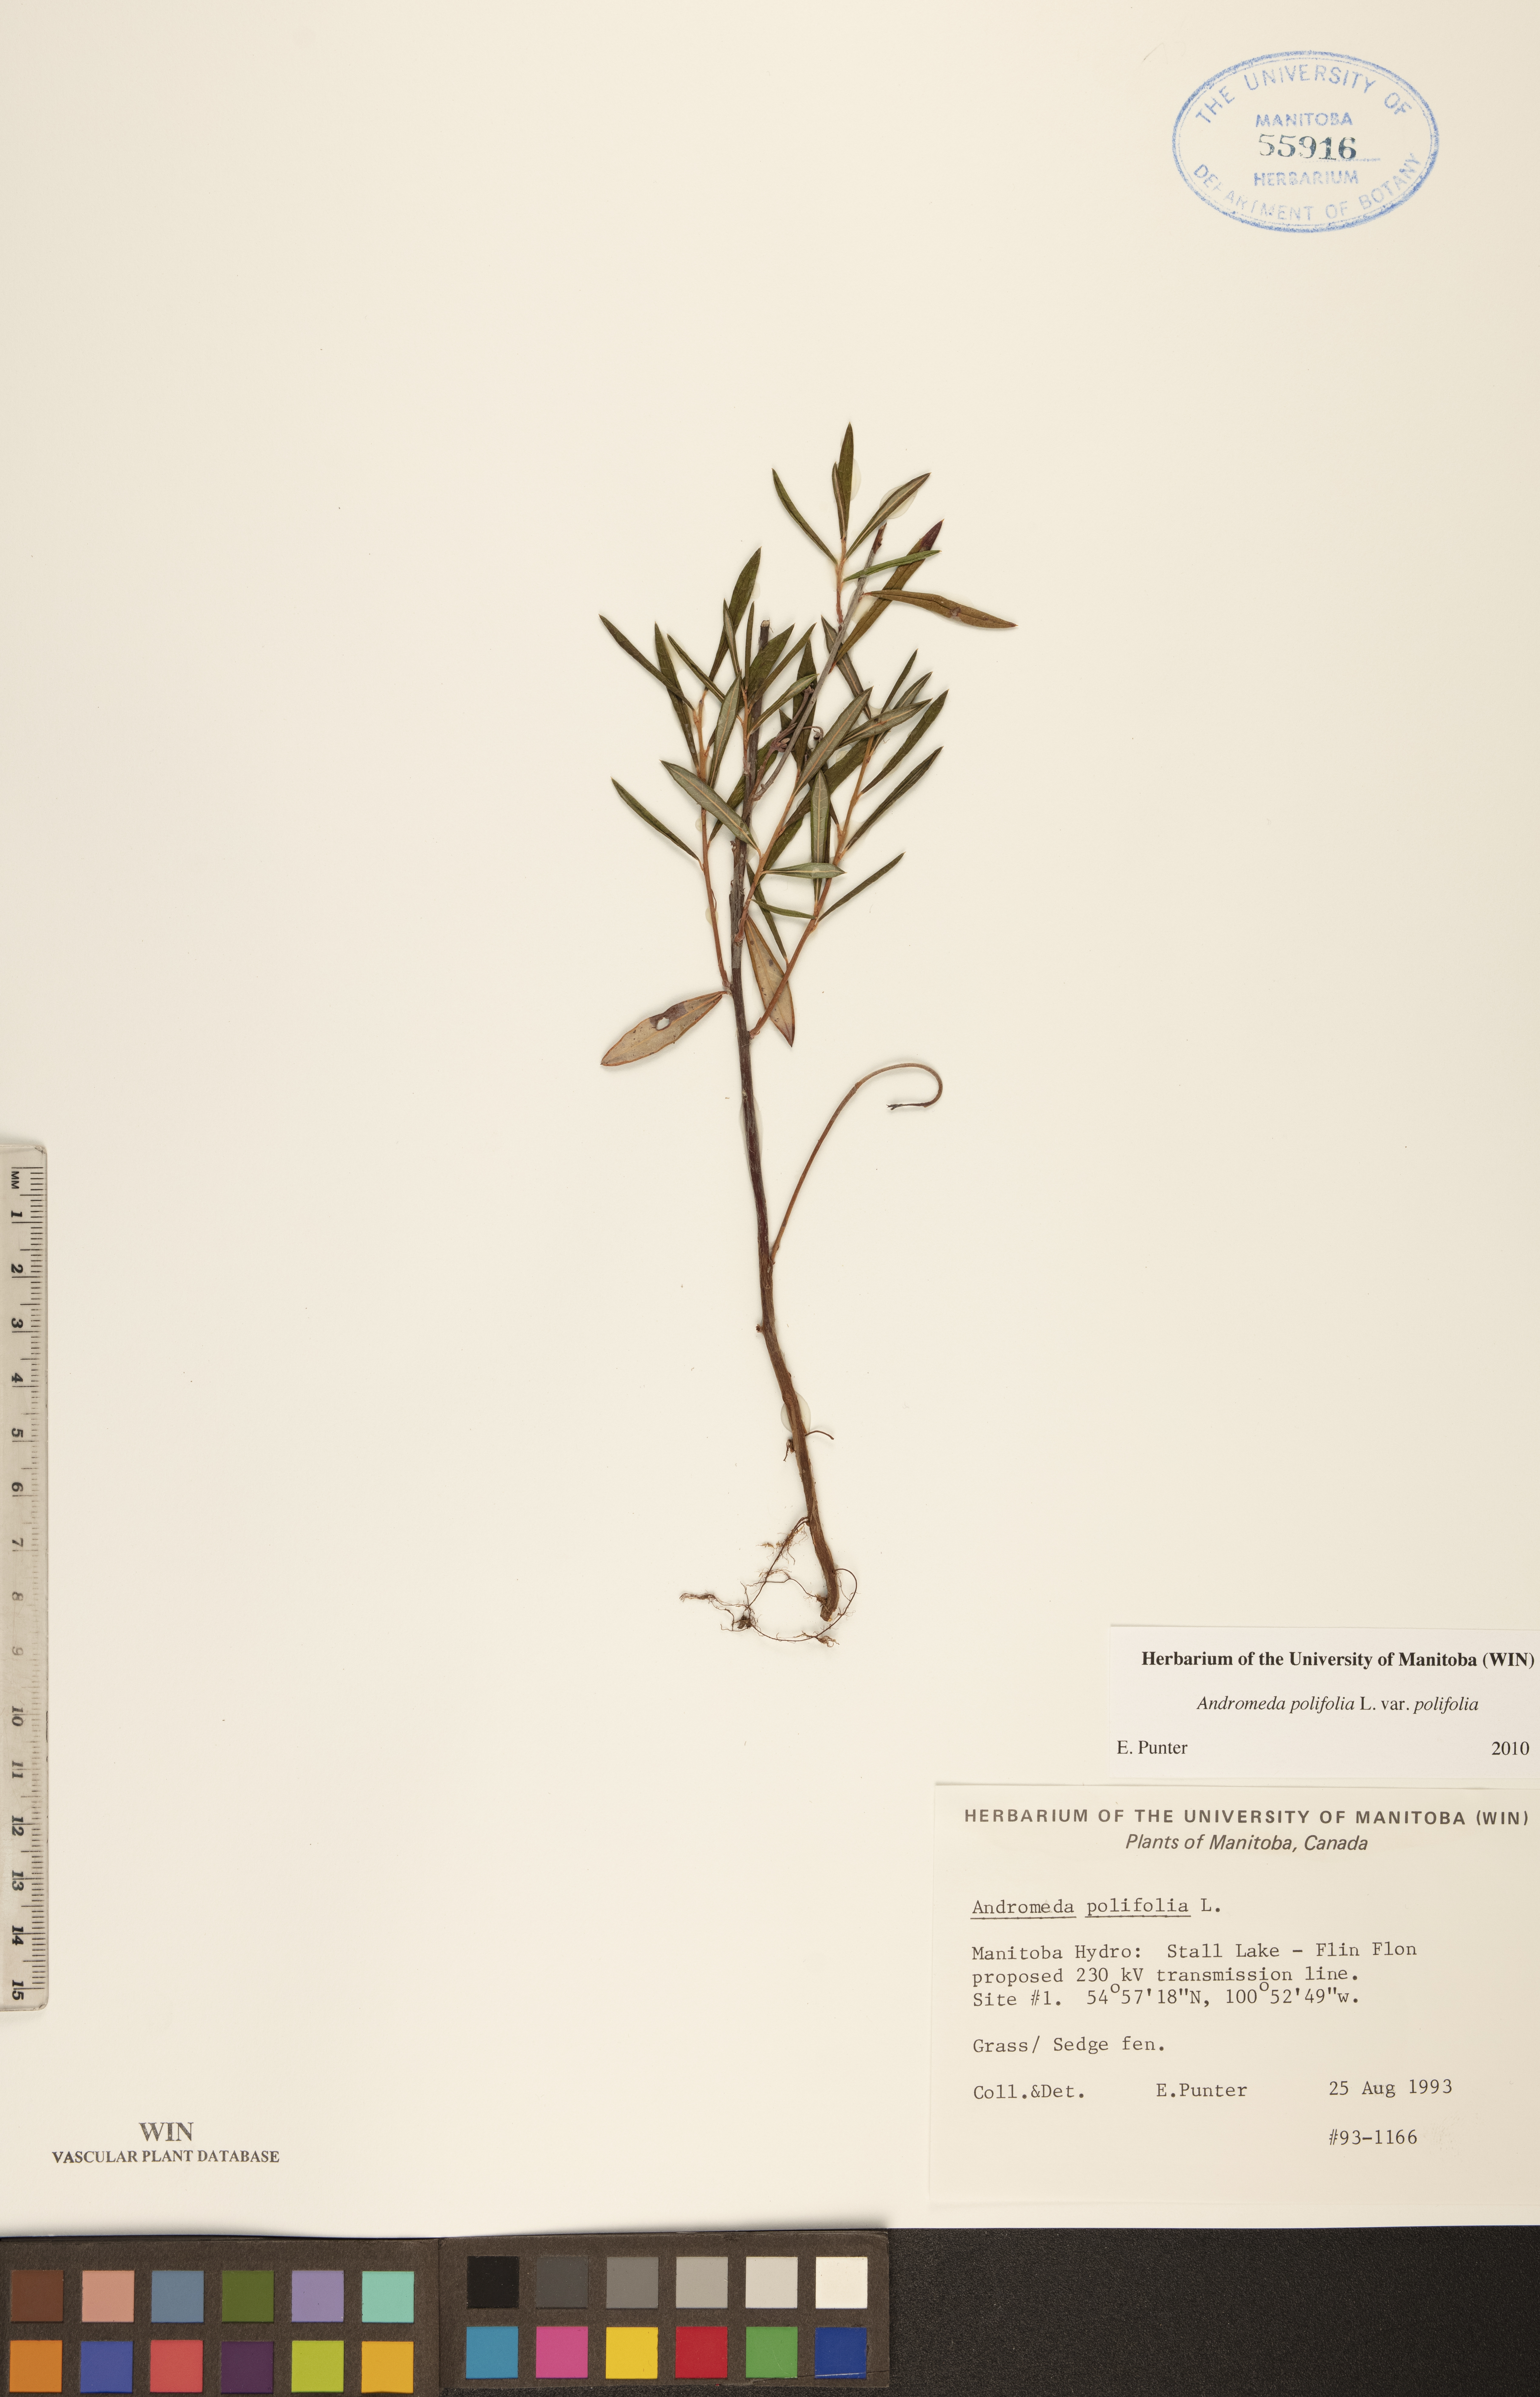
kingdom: Plantae
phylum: Tracheophyta
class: Magnoliopsida
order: Ericales
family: Ericaceae
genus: Andromeda
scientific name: Andromeda polifolia
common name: Bog-rosemary
